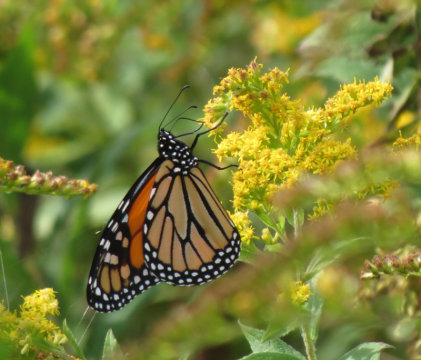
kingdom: Animalia
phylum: Arthropoda
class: Insecta
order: Lepidoptera
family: Nymphalidae
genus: Danaus
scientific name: Danaus plexippus
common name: Monarch
